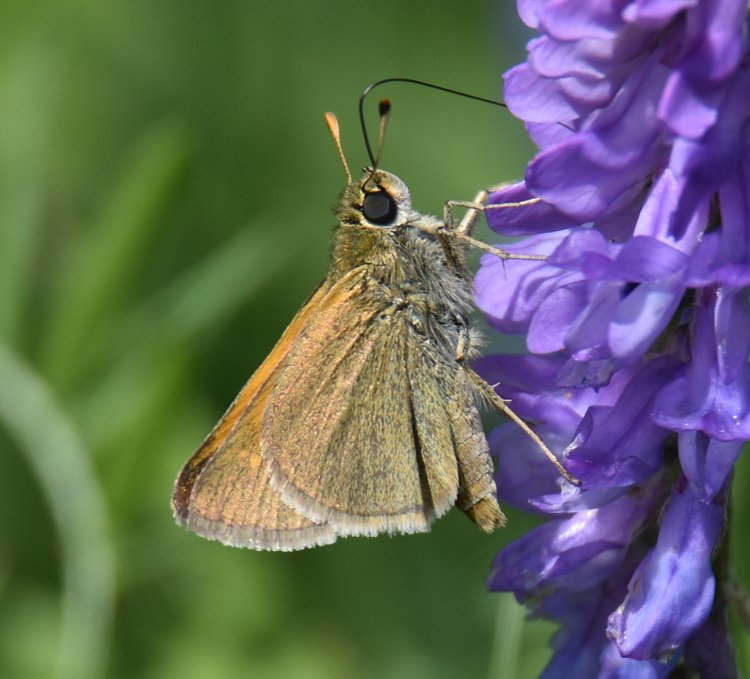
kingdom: Animalia
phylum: Arthropoda
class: Insecta
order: Lepidoptera
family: Hesperiidae
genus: Polites
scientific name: Polites themistocles
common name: Tawny-edged Skipper
